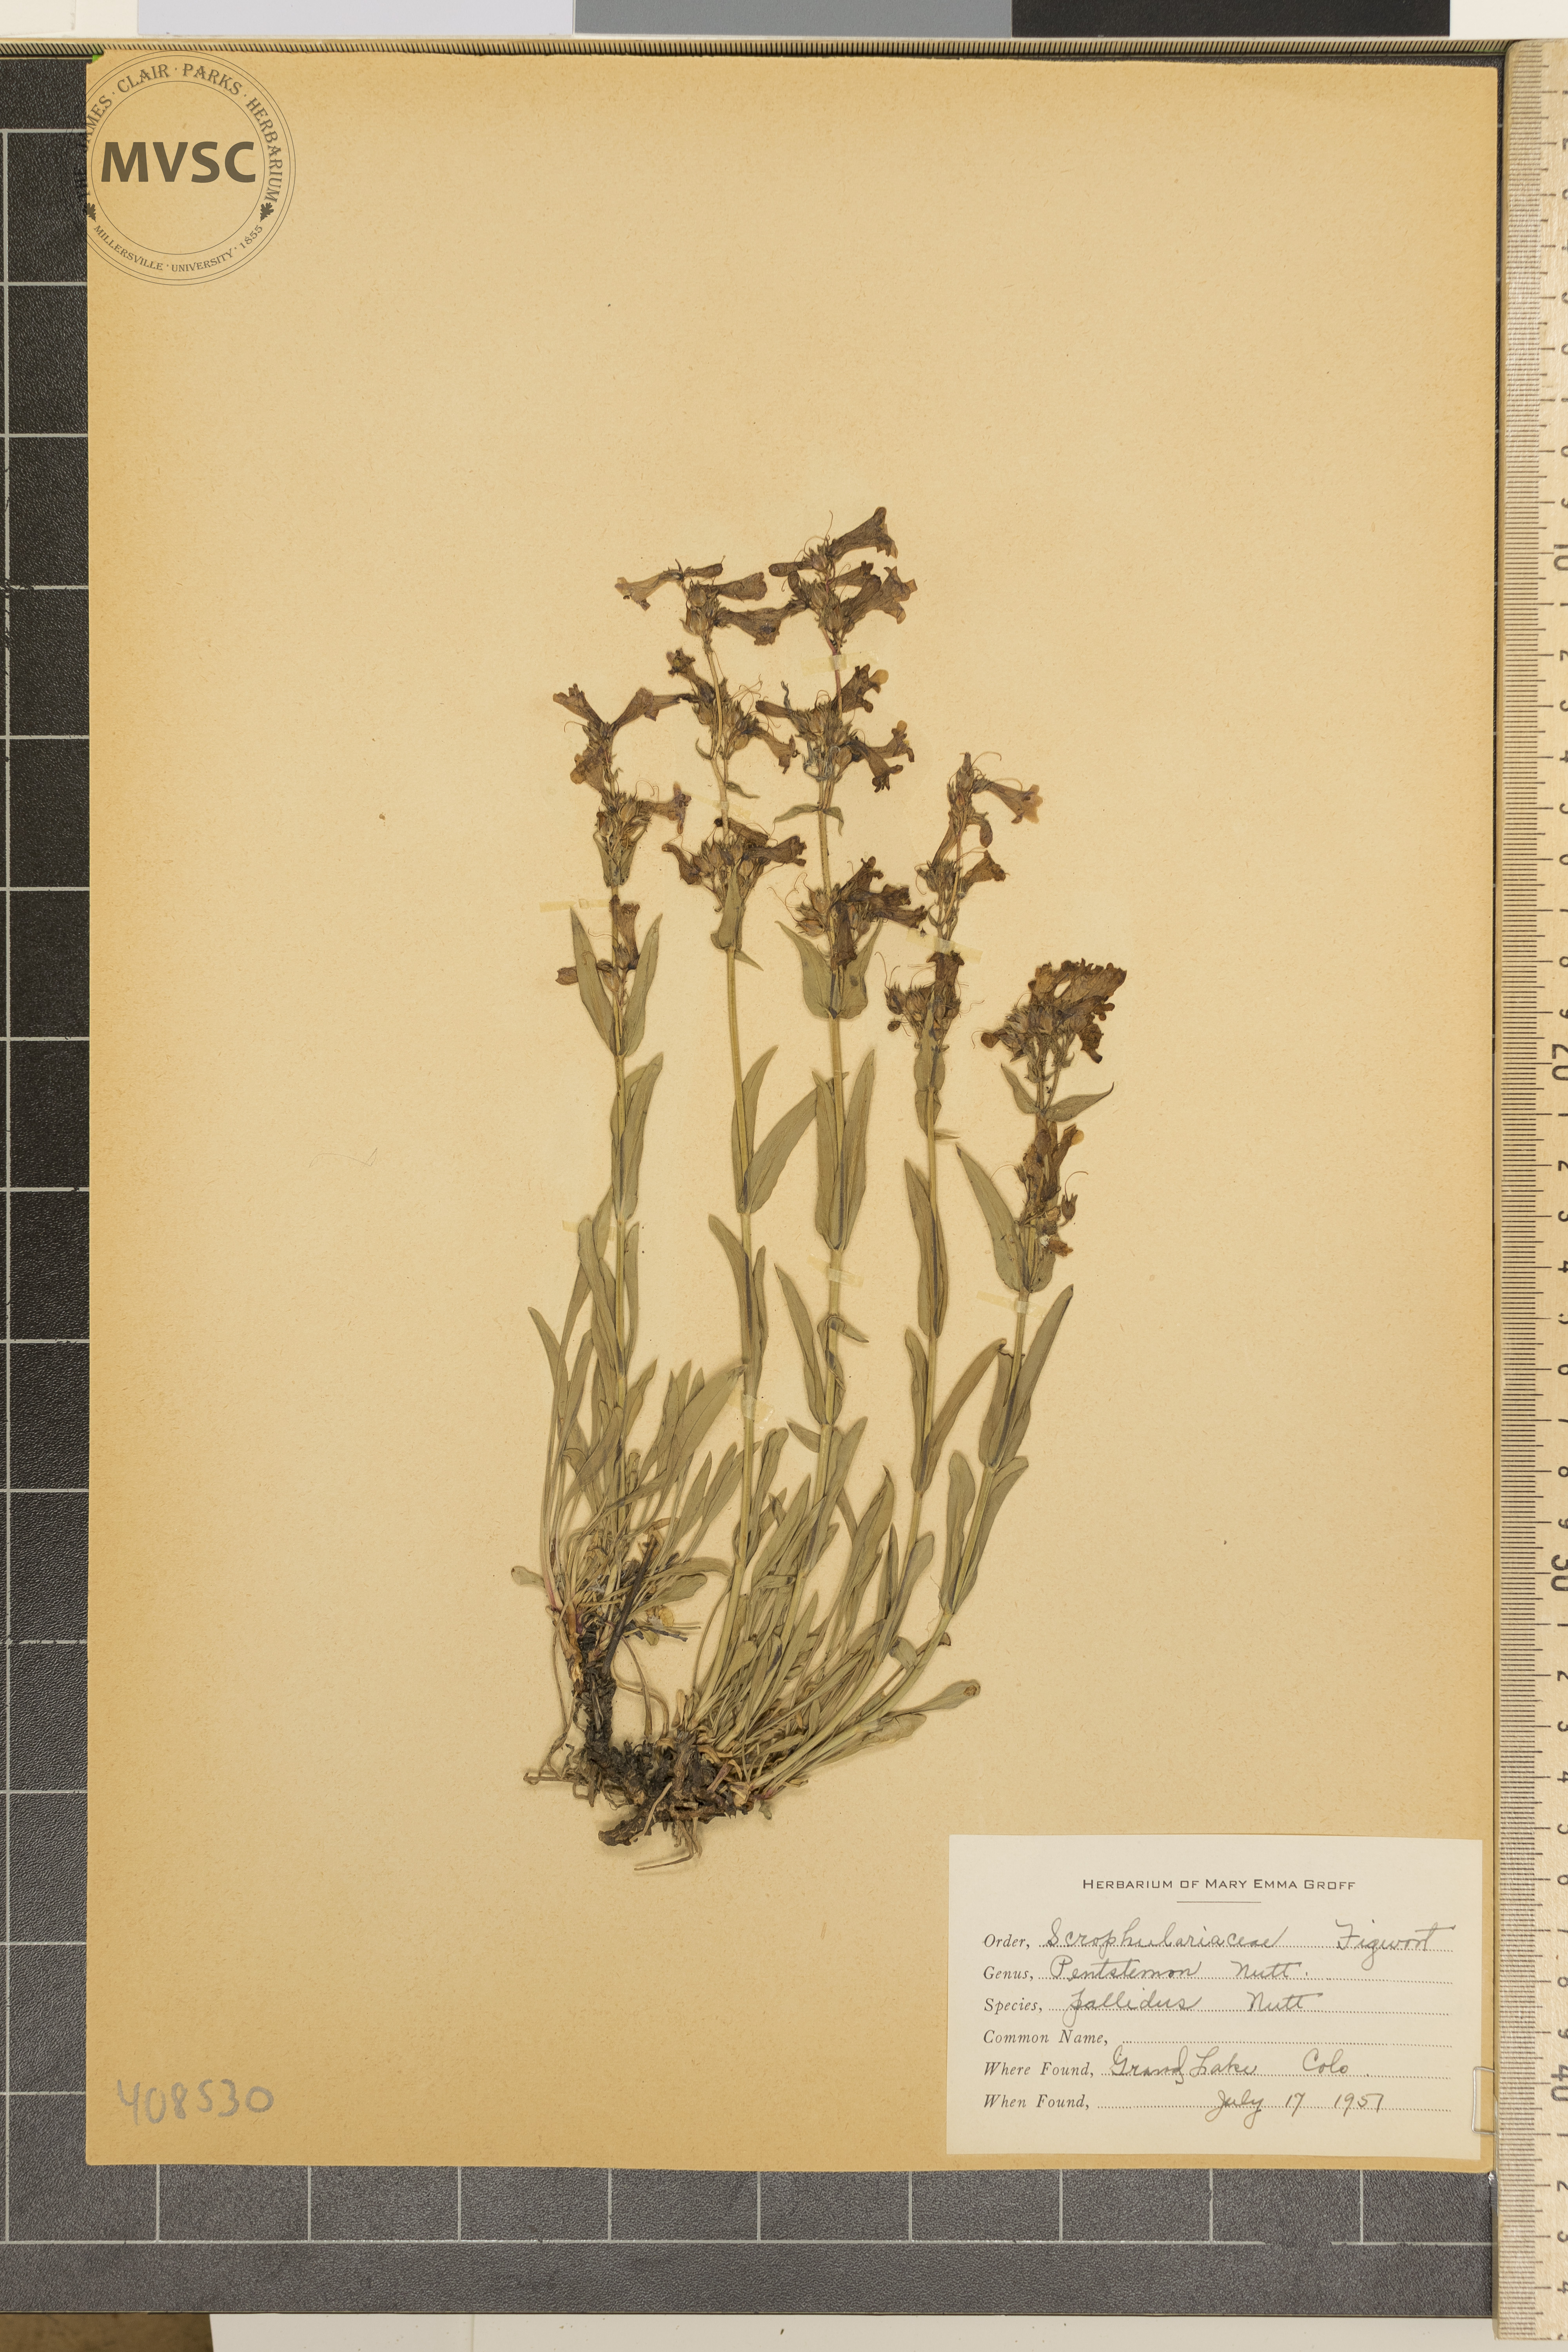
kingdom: Plantae
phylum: Tracheophyta
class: Magnoliopsida
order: Lamiales
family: Plantaginaceae
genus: Penstemon
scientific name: Penstemon pallidus
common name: Pale beardtongue
